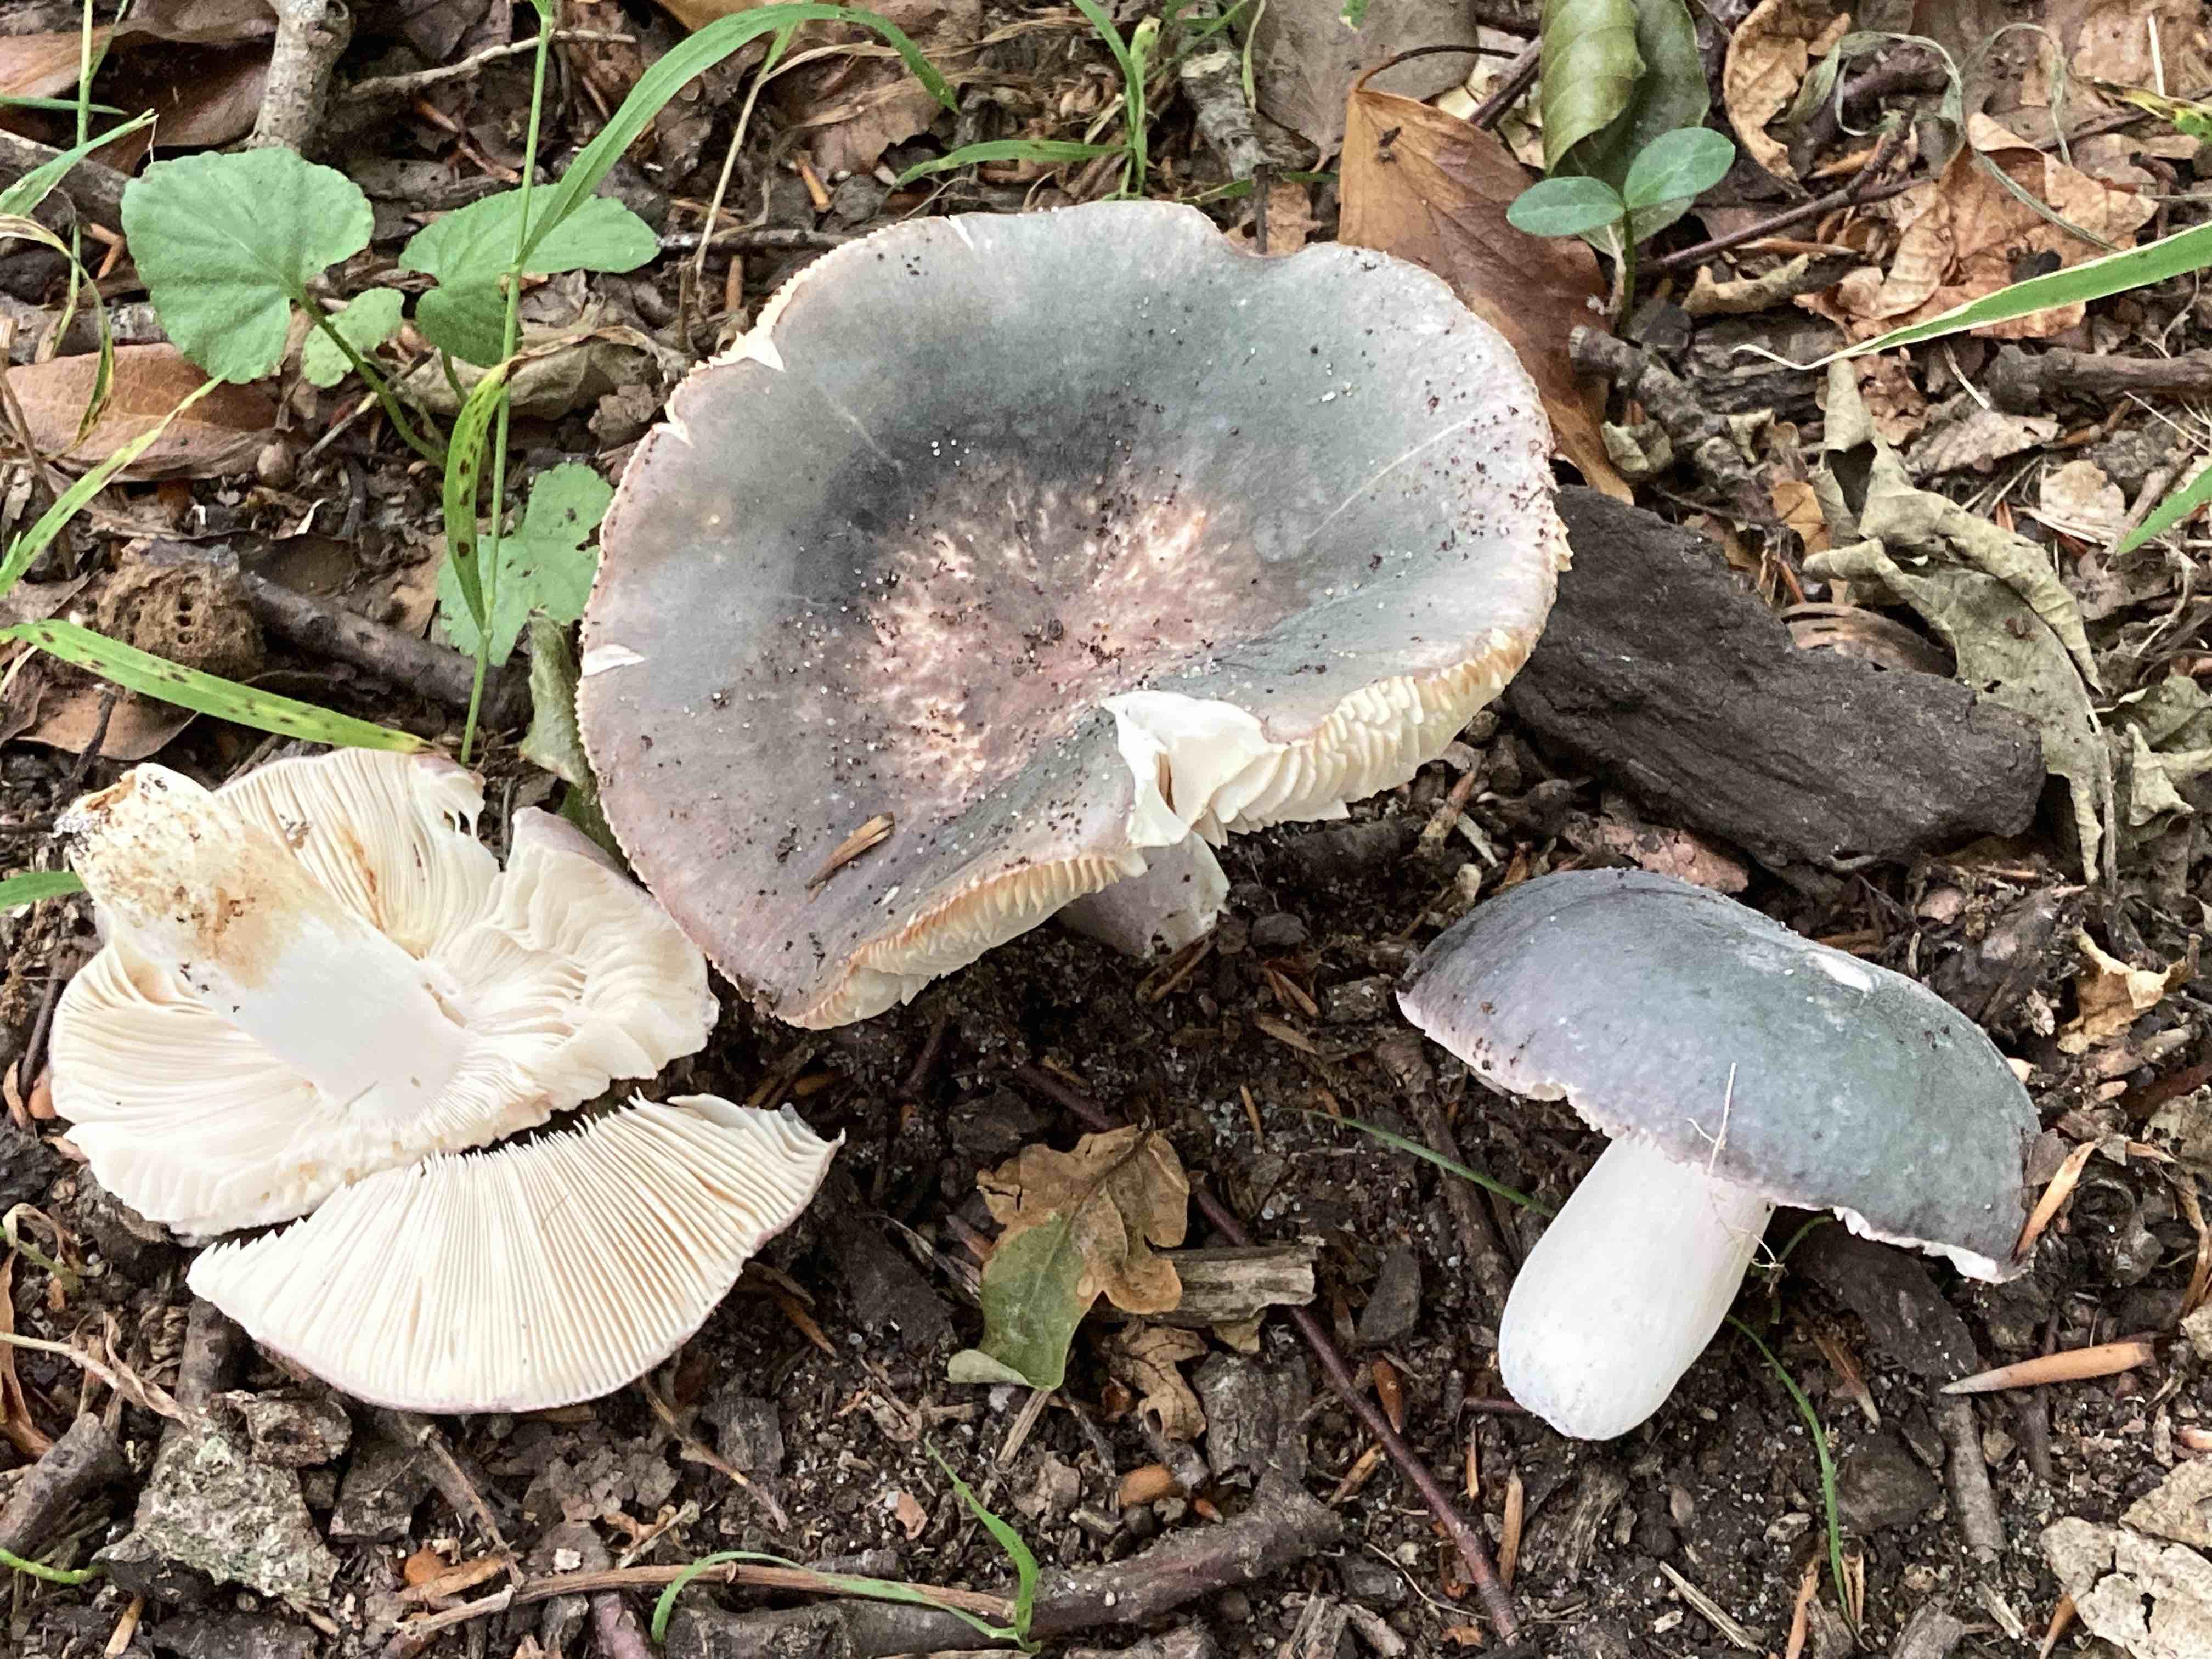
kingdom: Fungi
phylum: Basidiomycota
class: Agaricomycetes
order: Russulales
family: Russulaceae
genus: Russula
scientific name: Russula parazurea
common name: blågrå skørhat
